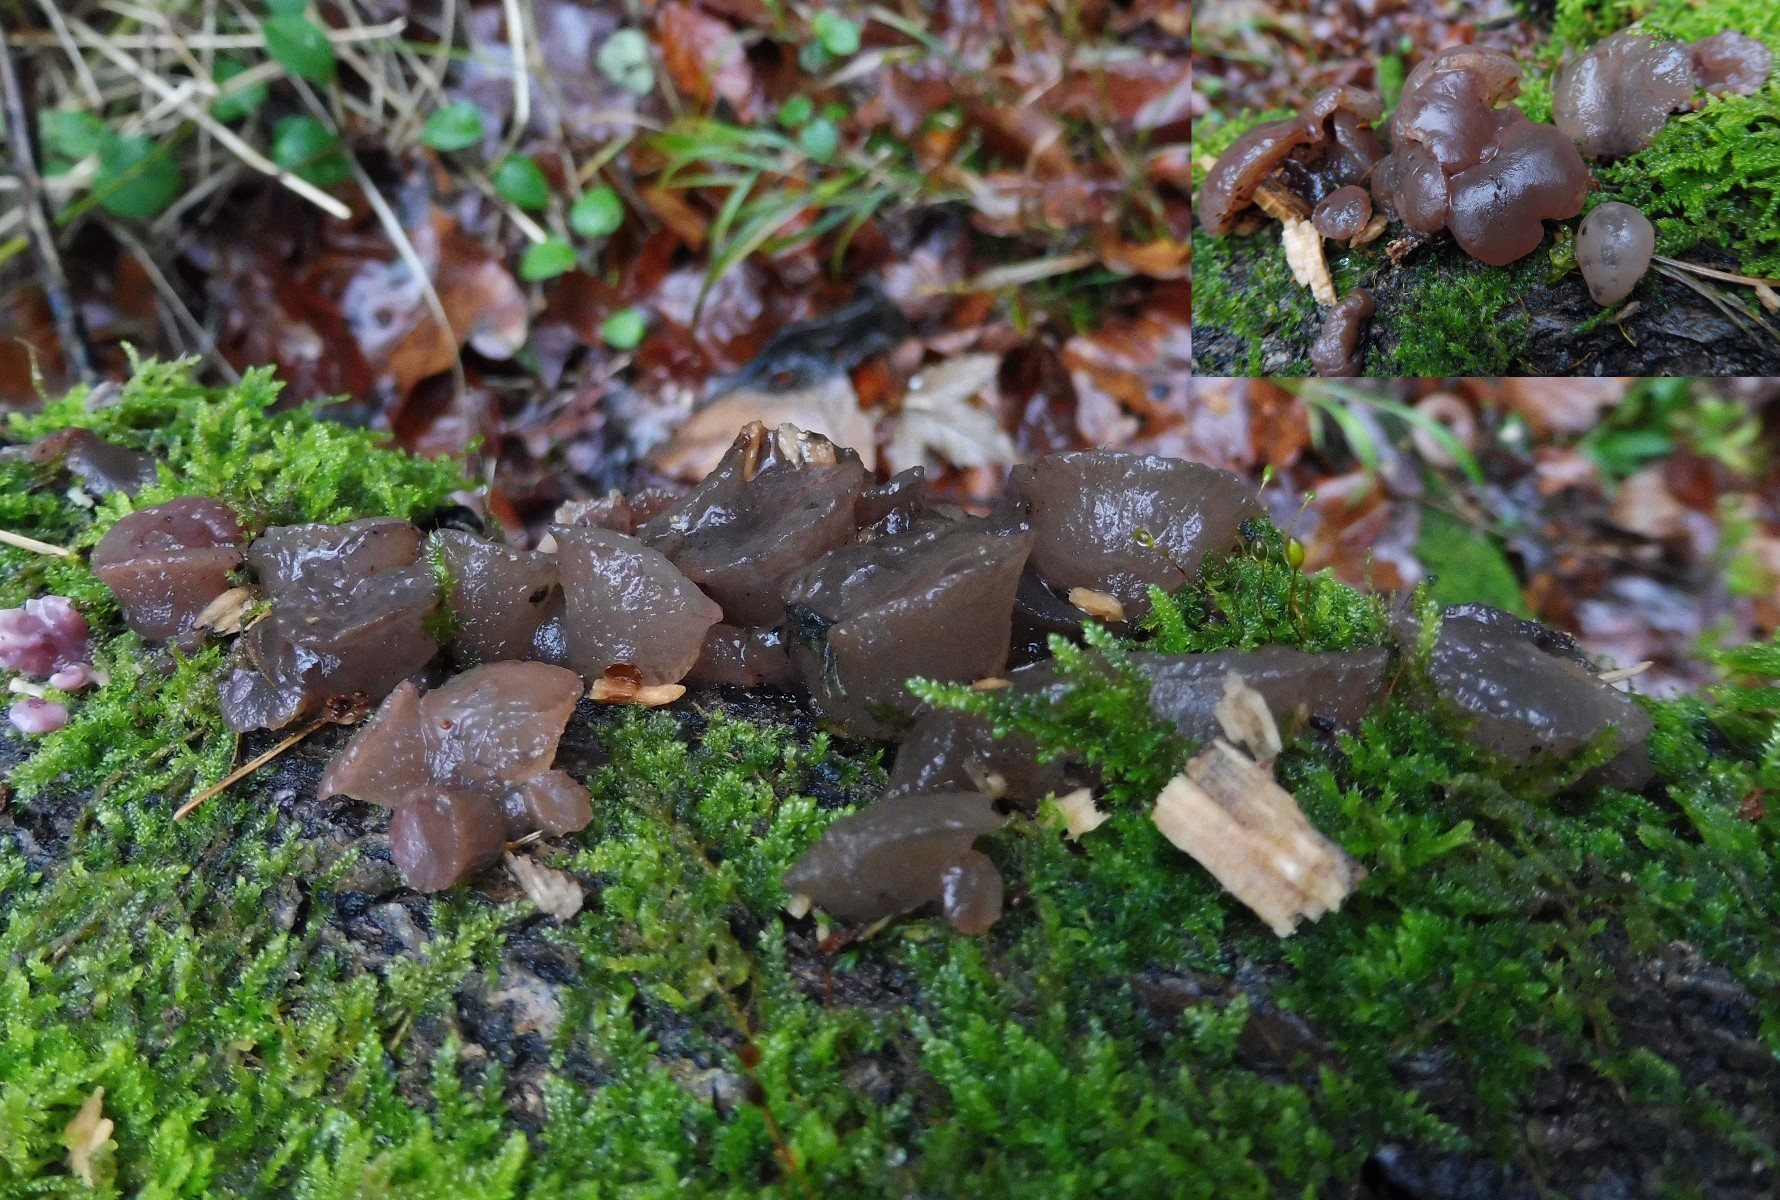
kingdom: Fungi
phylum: Ascomycota
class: Leotiomycetes
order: Helotiales
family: Gelatinodiscaceae
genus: Neobulgaria
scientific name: Neobulgaria pura
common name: bleg bævreskive
